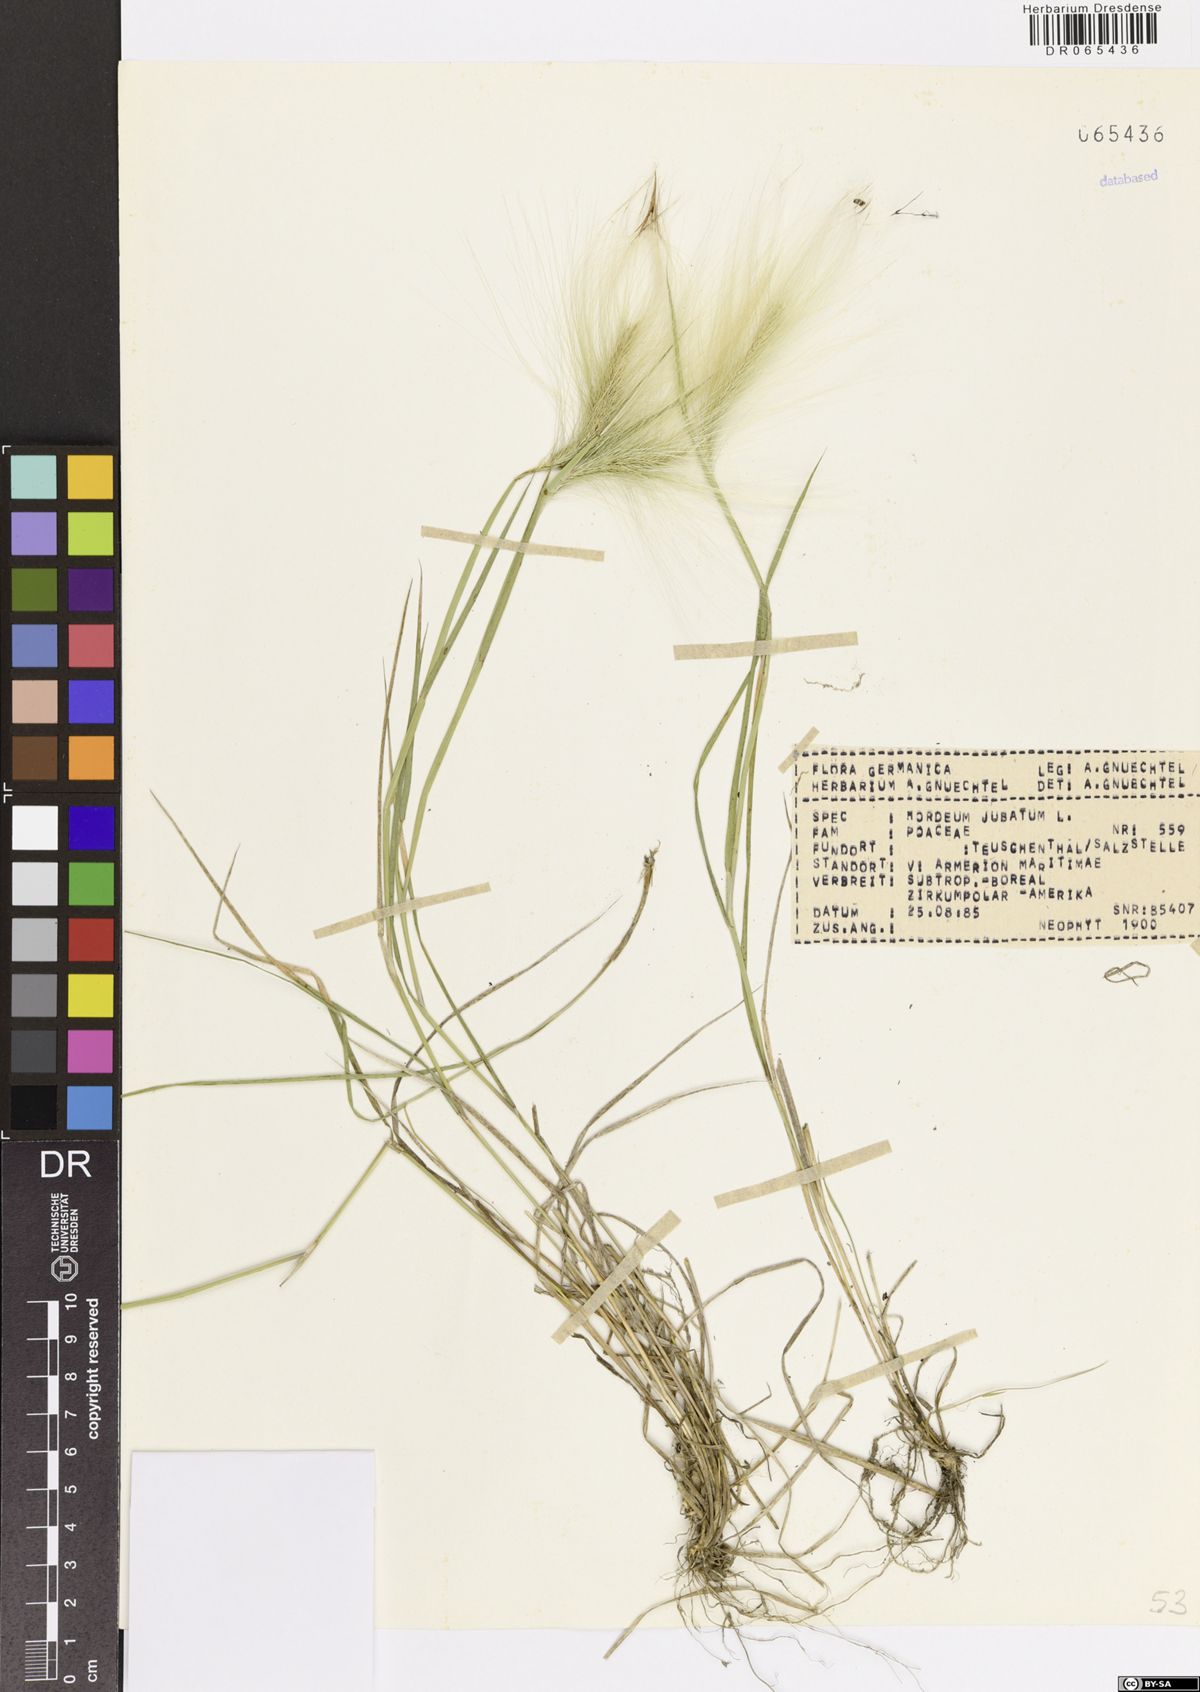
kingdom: Plantae
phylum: Tracheophyta
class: Liliopsida
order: Poales
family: Poaceae
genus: Hordeum
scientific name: Hordeum jubatum
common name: Foxtail barley
